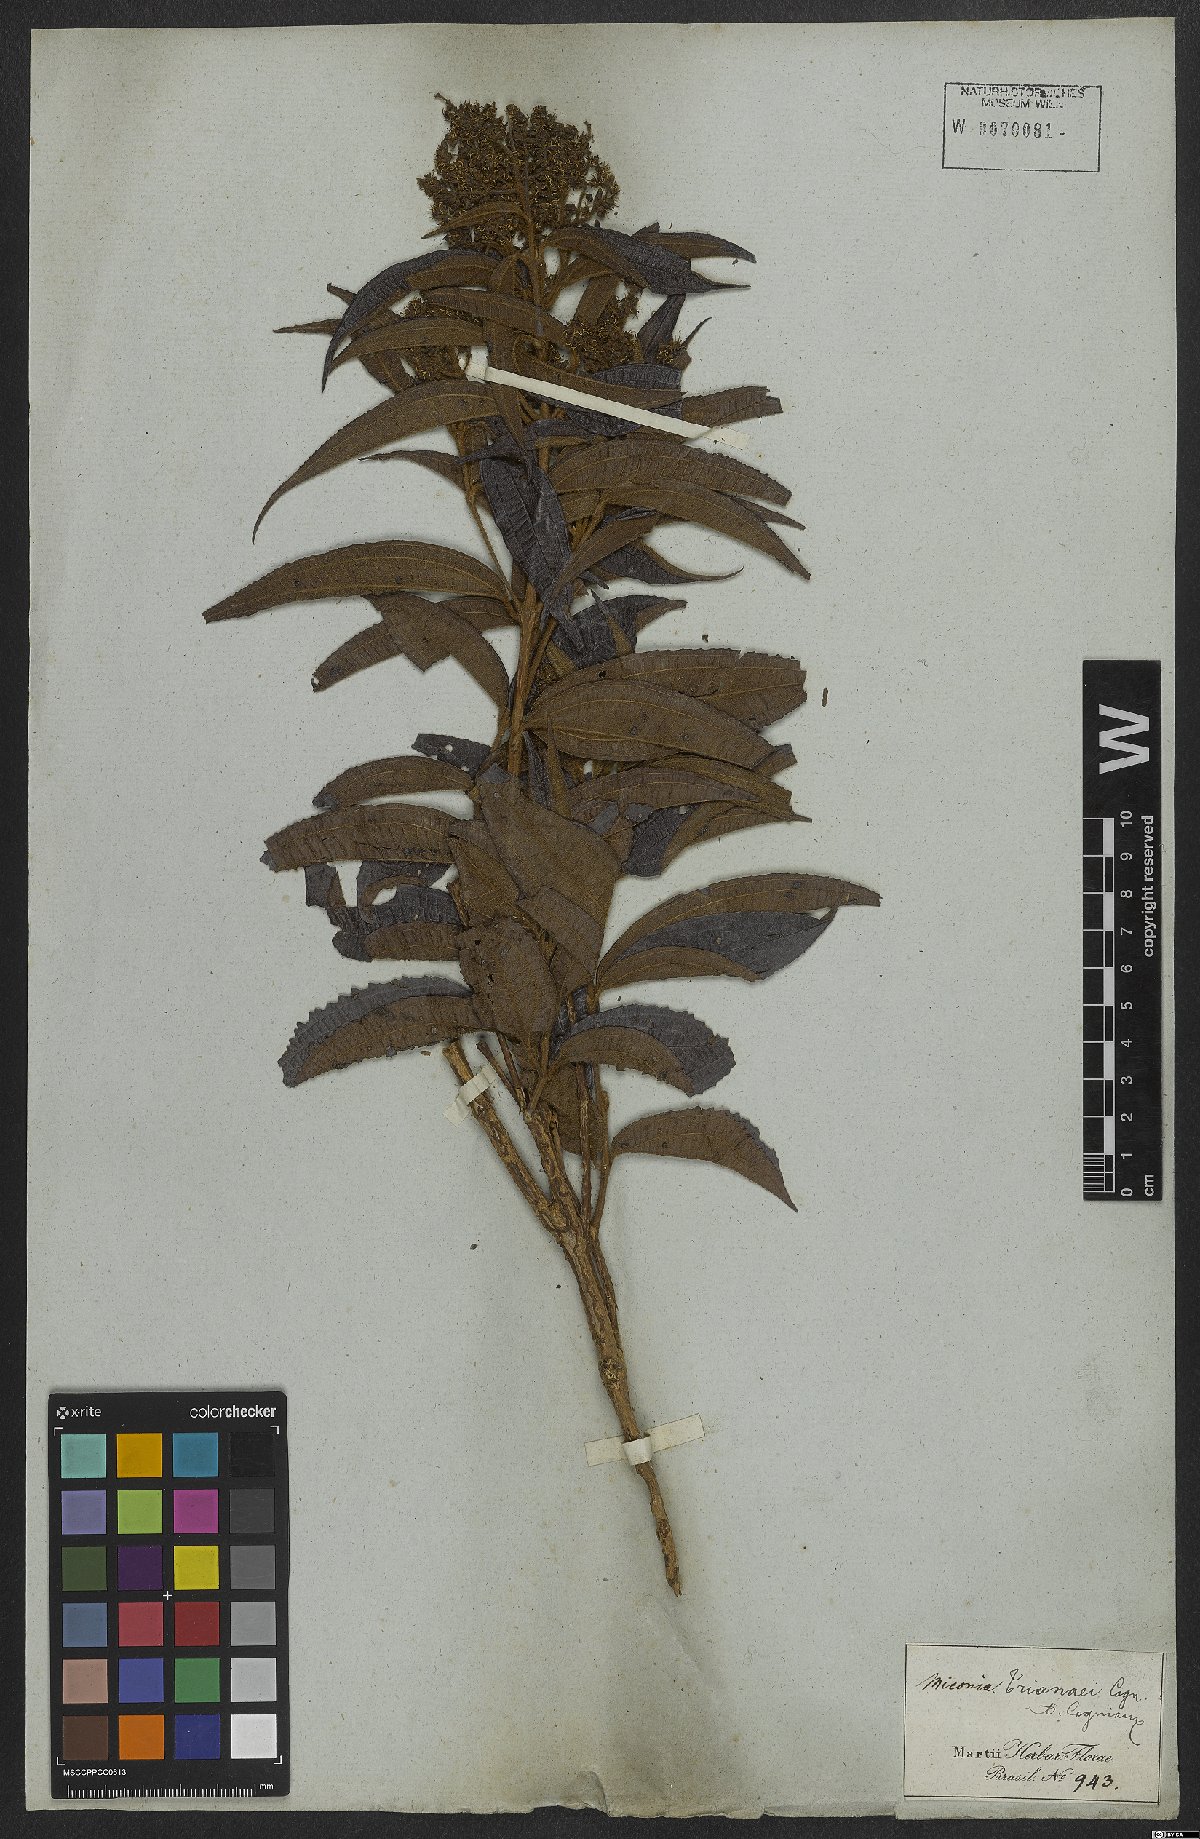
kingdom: Plantae
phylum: Tracheophyta
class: Magnoliopsida
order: Myrtales
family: Melastomataceae
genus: Miconia
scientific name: Miconia trianae
